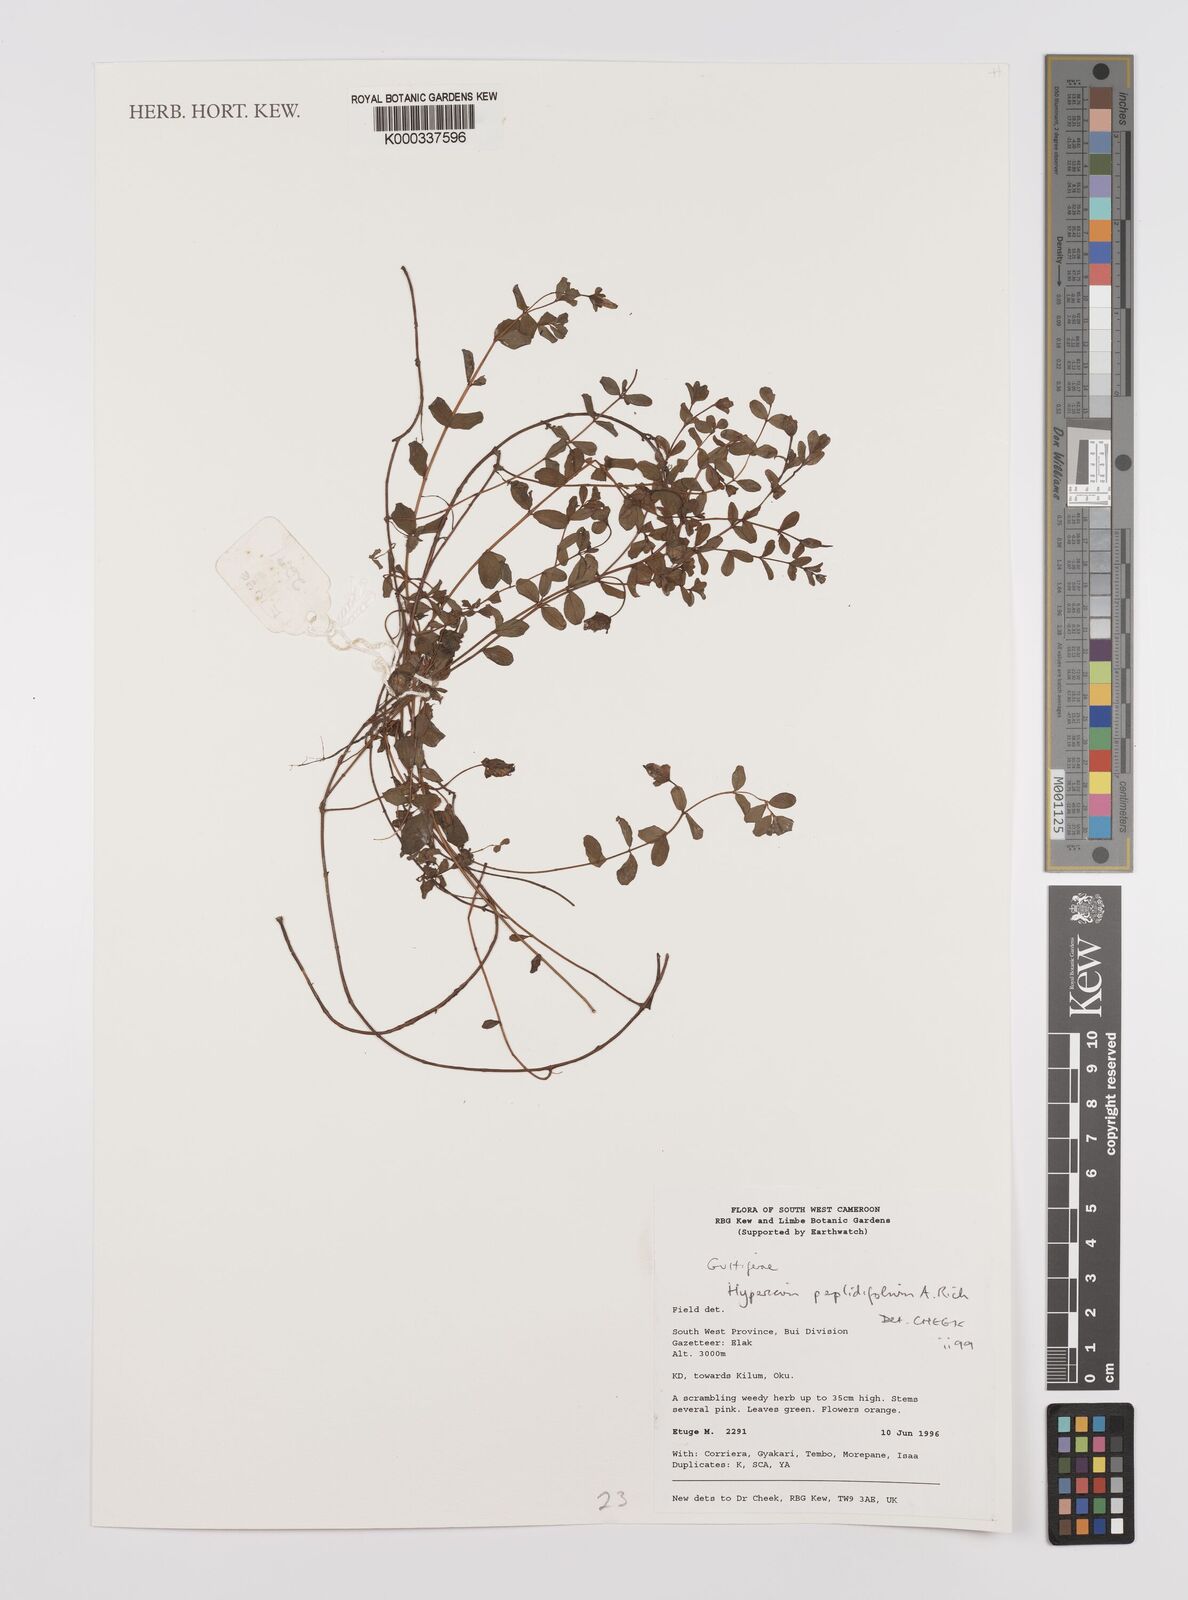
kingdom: Plantae
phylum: Tracheophyta
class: Magnoliopsida
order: Malpighiales
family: Hypericaceae
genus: Hypericum
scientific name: Hypericum peplidifolium
